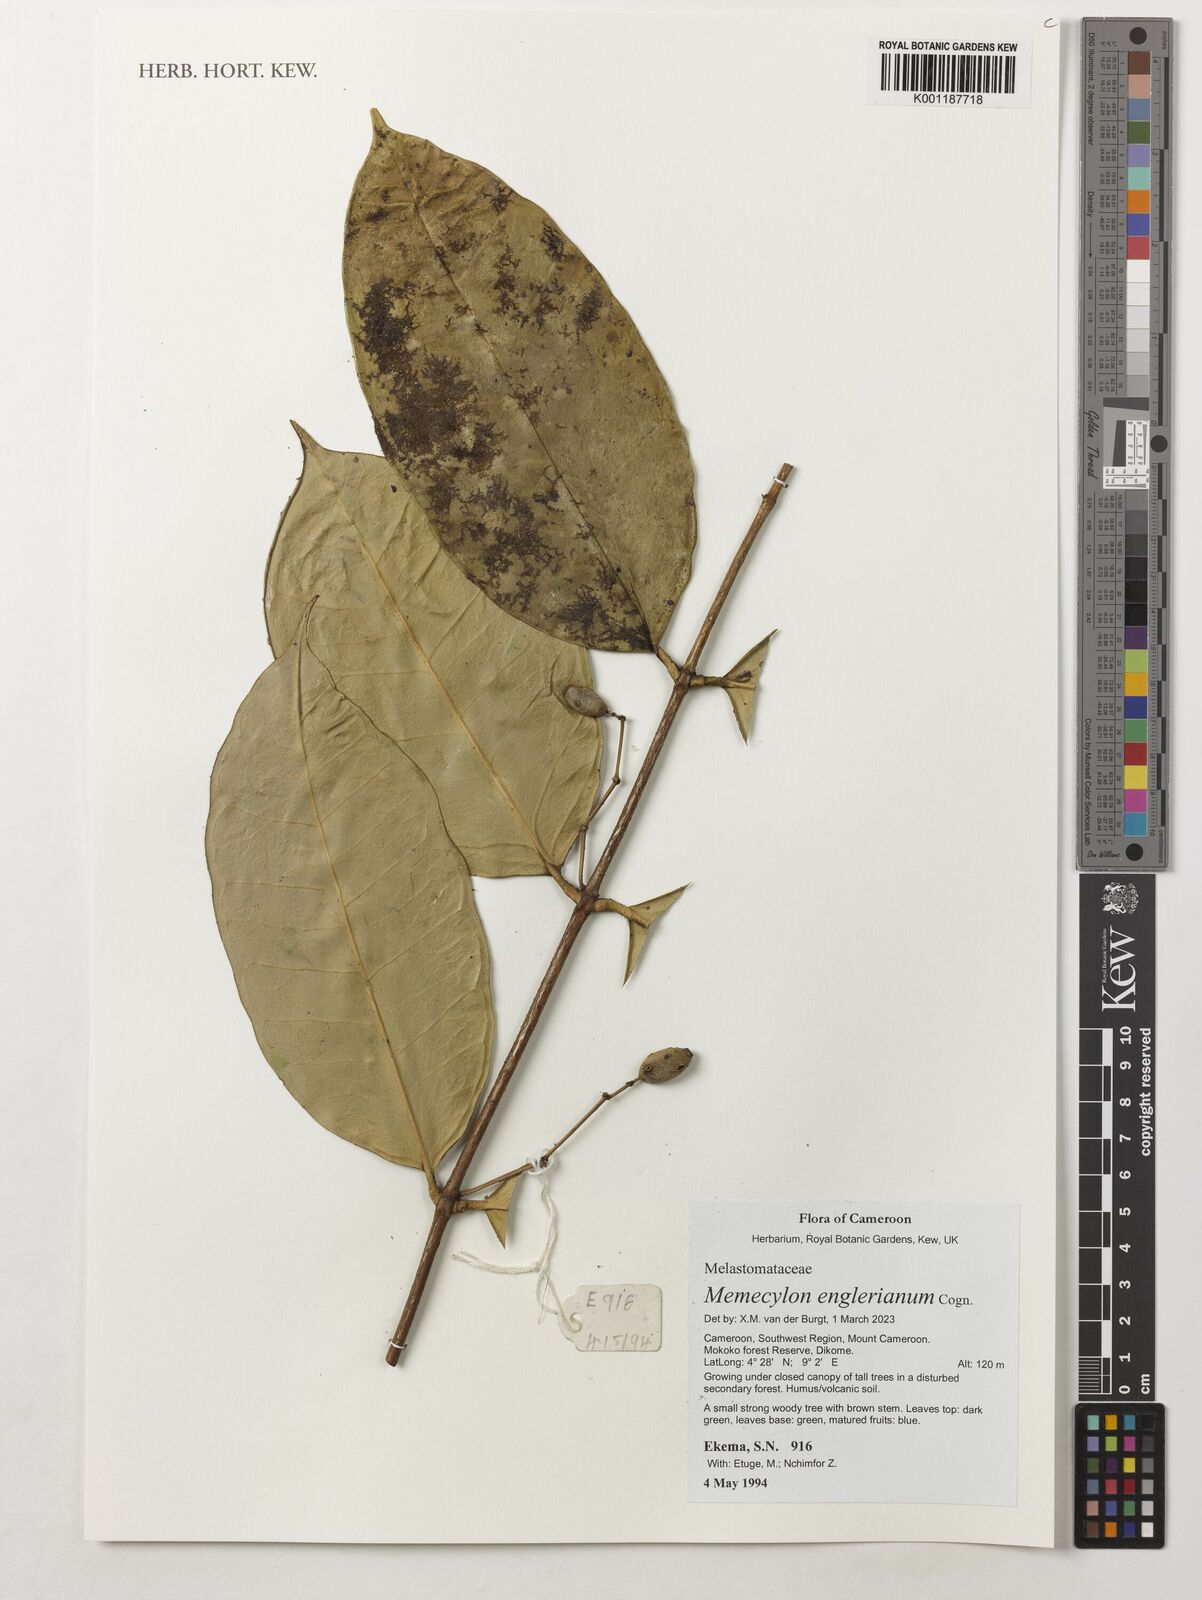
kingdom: Plantae
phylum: Tracheophyta
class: Magnoliopsida
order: Myrtales
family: Melastomataceae
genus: Memecylon
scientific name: Memecylon englerianum
